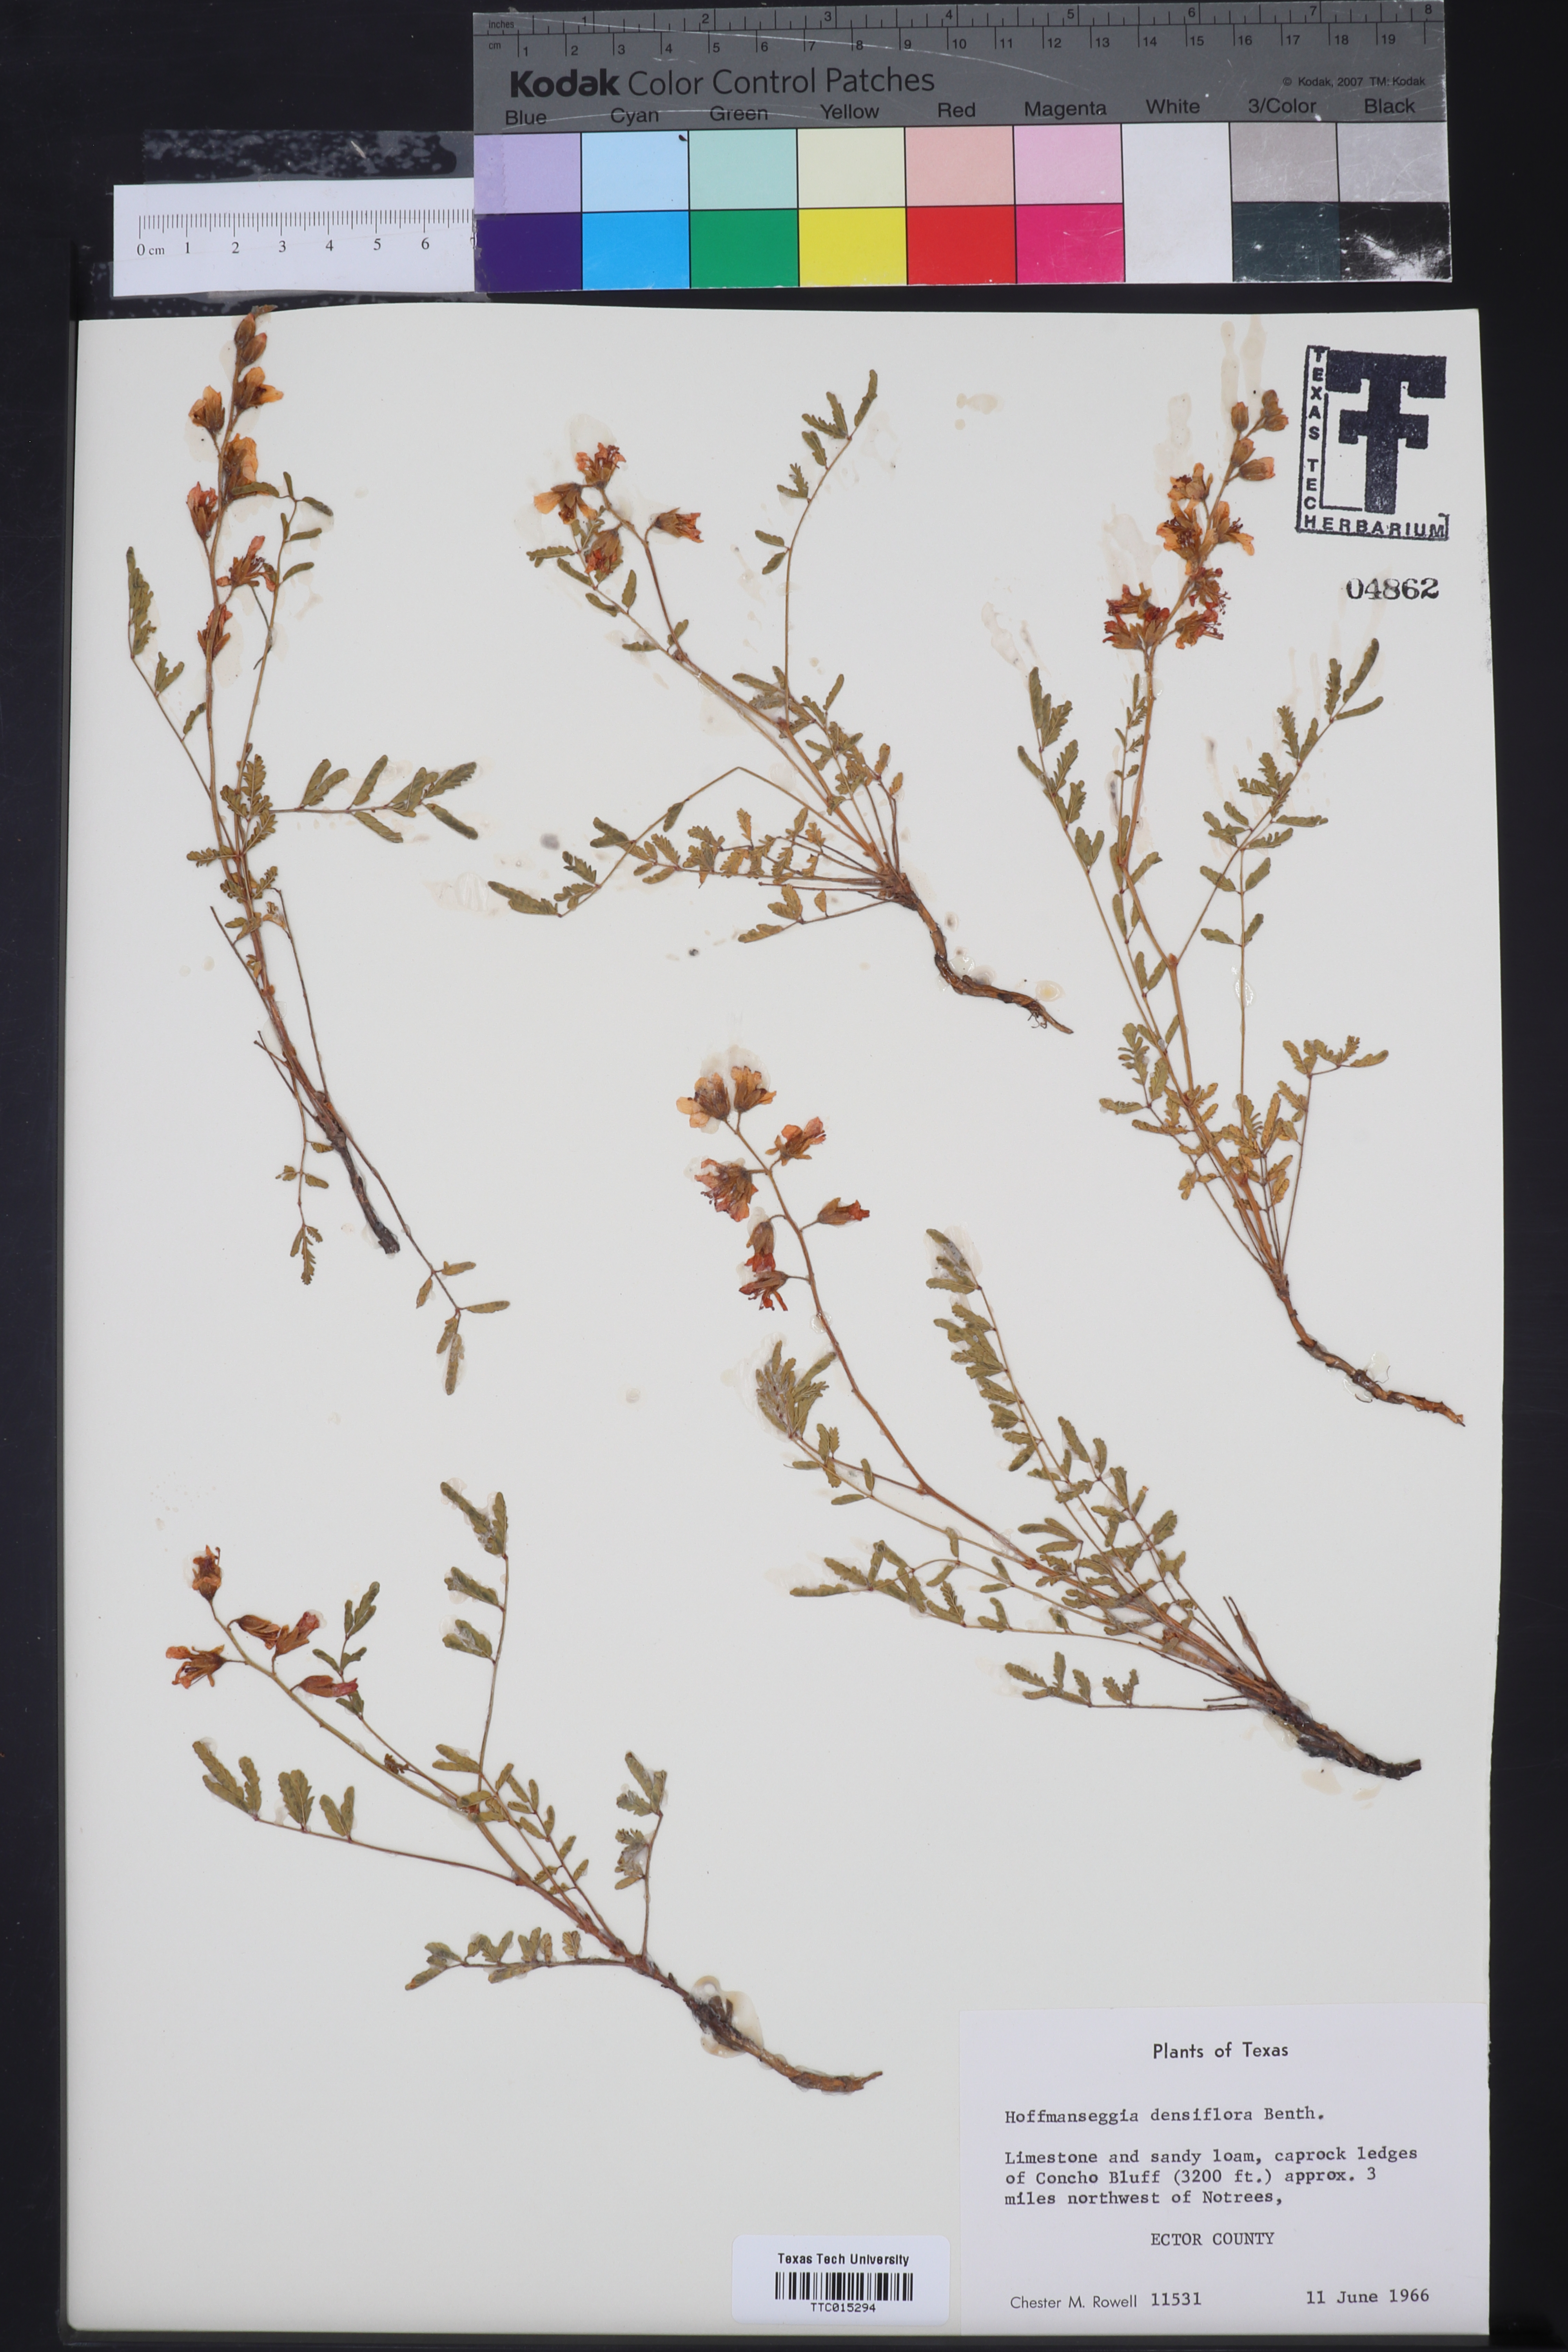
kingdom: Plantae
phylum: Tracheophyta
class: Magnoliopsida
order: Fabales
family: Fabaceae
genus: Hoffmannseggia
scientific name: Hoffmannseggia glauca
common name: Pignut
